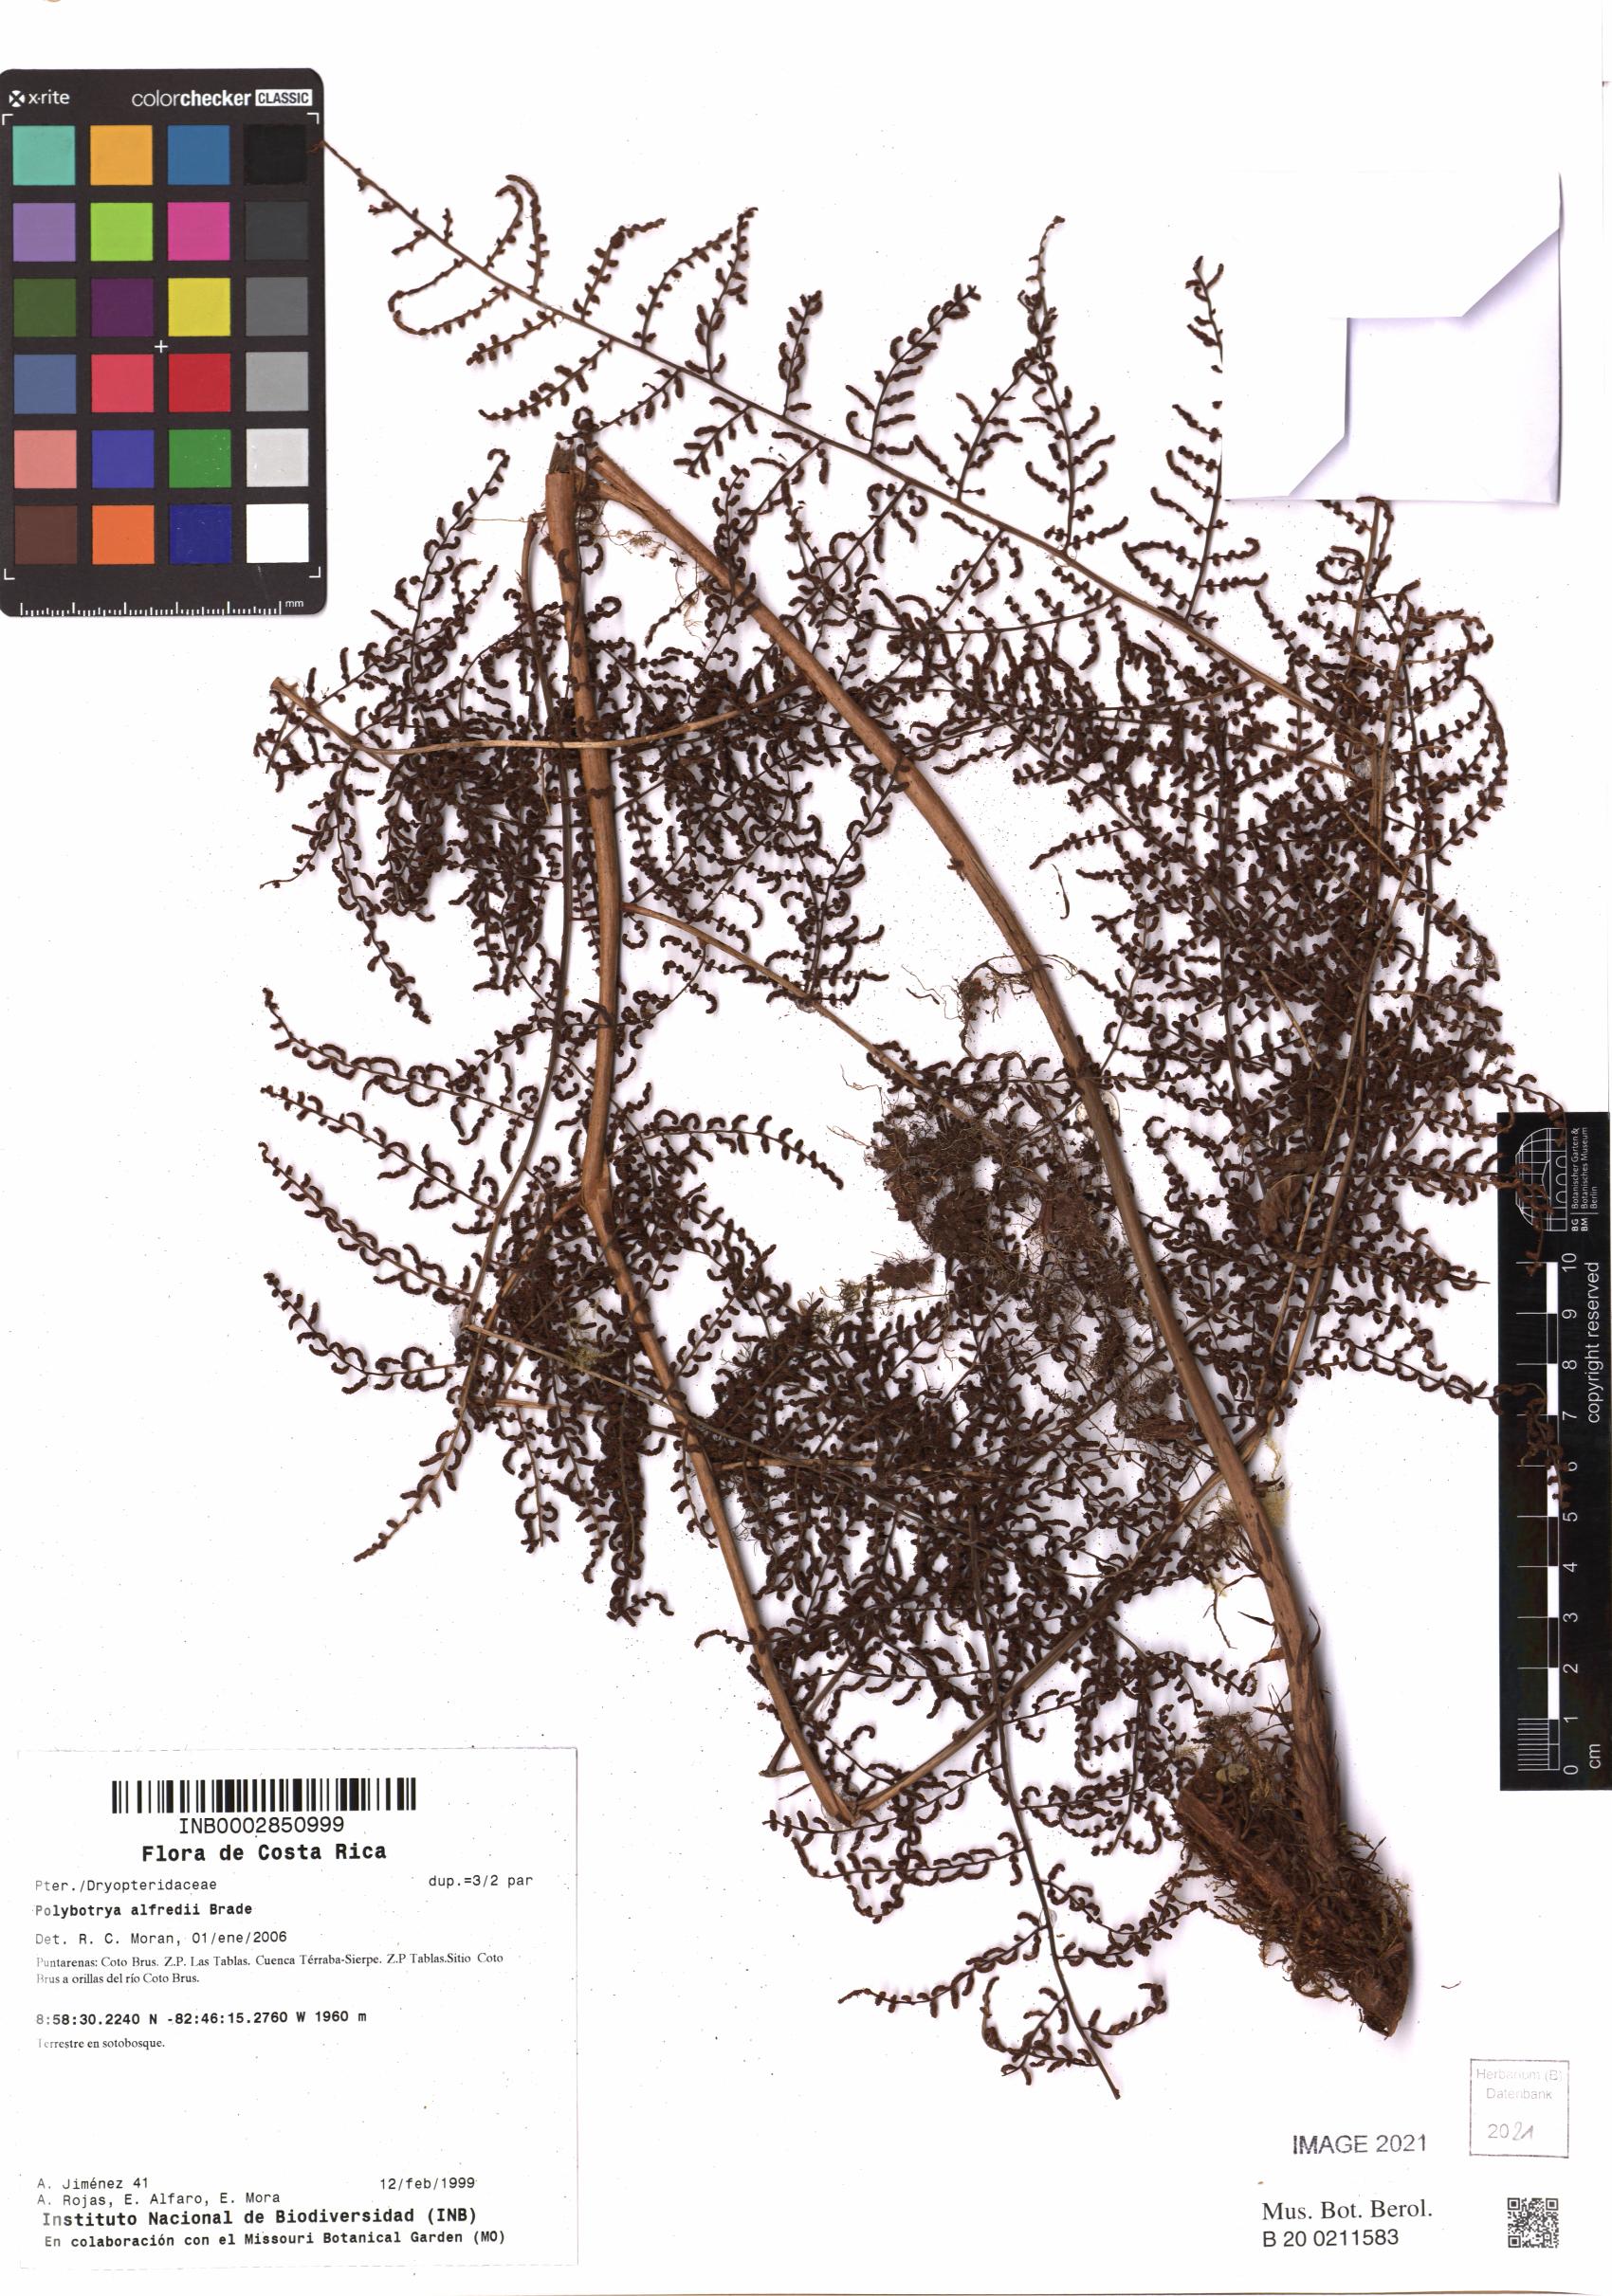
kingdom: Plantae
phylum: Tracheophyta
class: Polypodiopsida
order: Polypodiales
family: Dryopteridaceae
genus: Polybotrya
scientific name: Polybotrya alfredii
